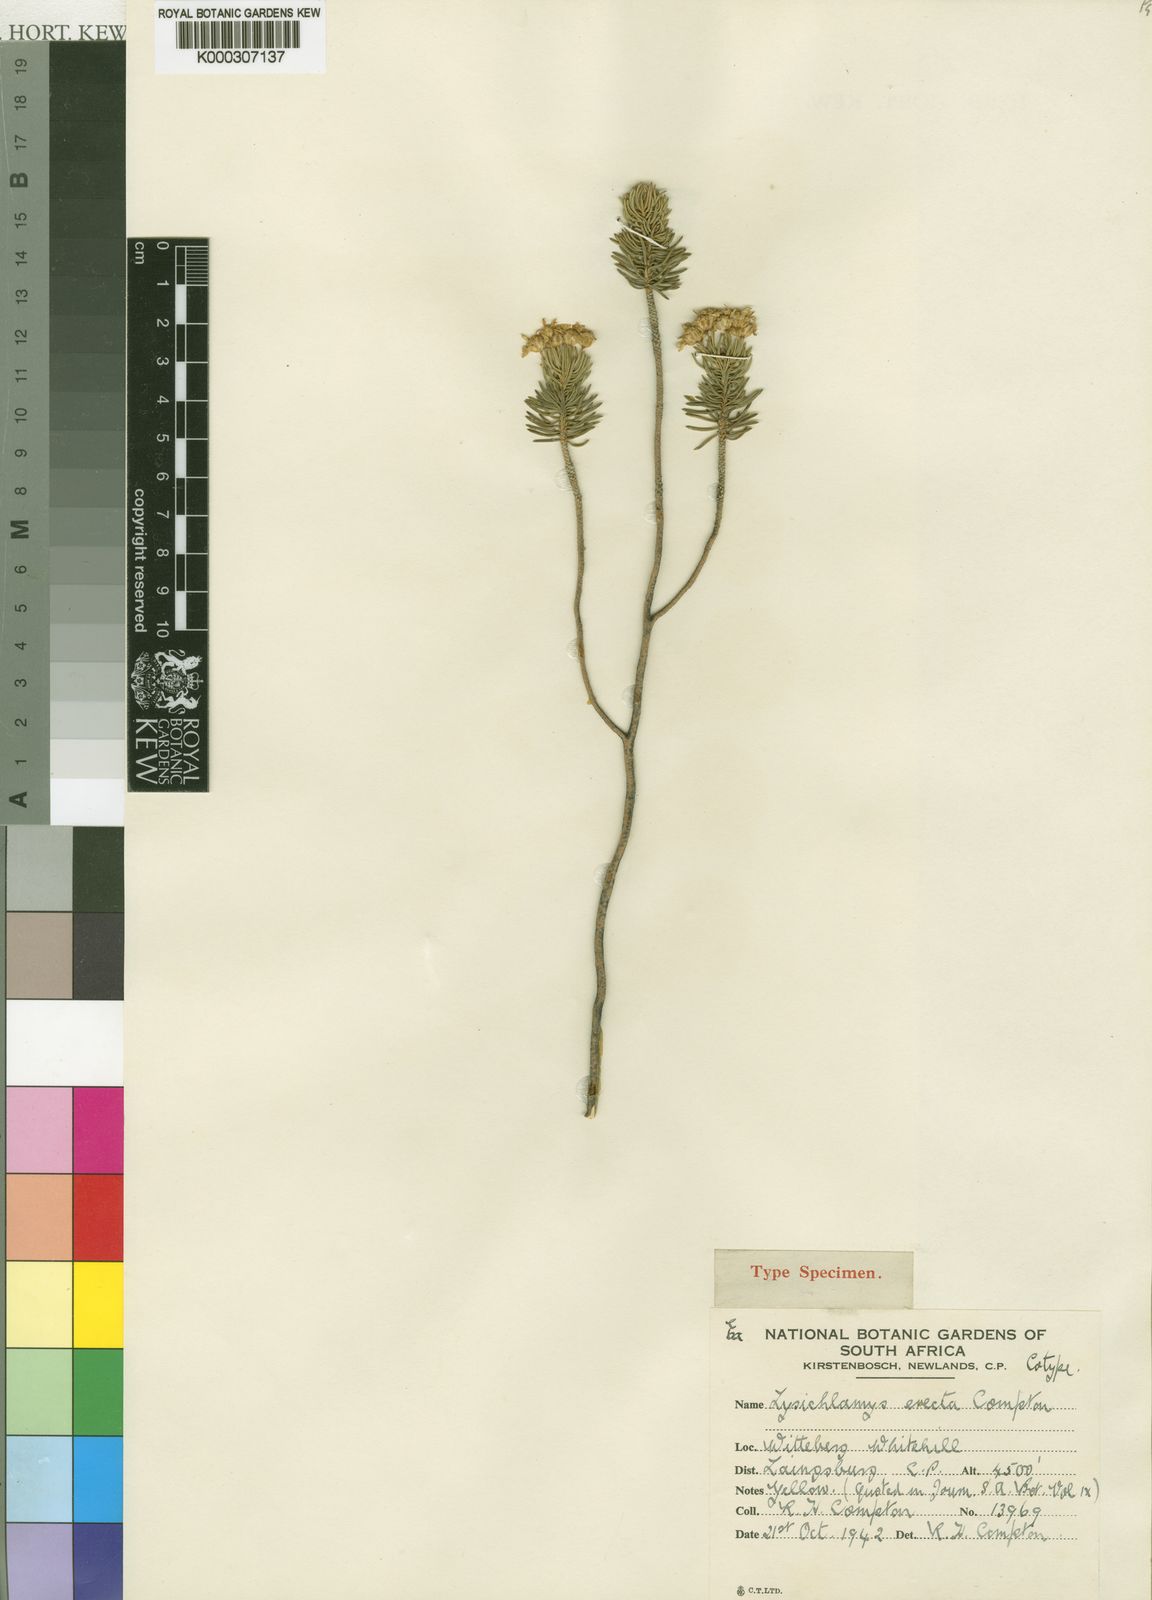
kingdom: Plantae
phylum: Tracheophyta
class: Magnoliopsida
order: Asterales
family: Asteraceae
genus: Euryops
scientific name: Euryops erectus
